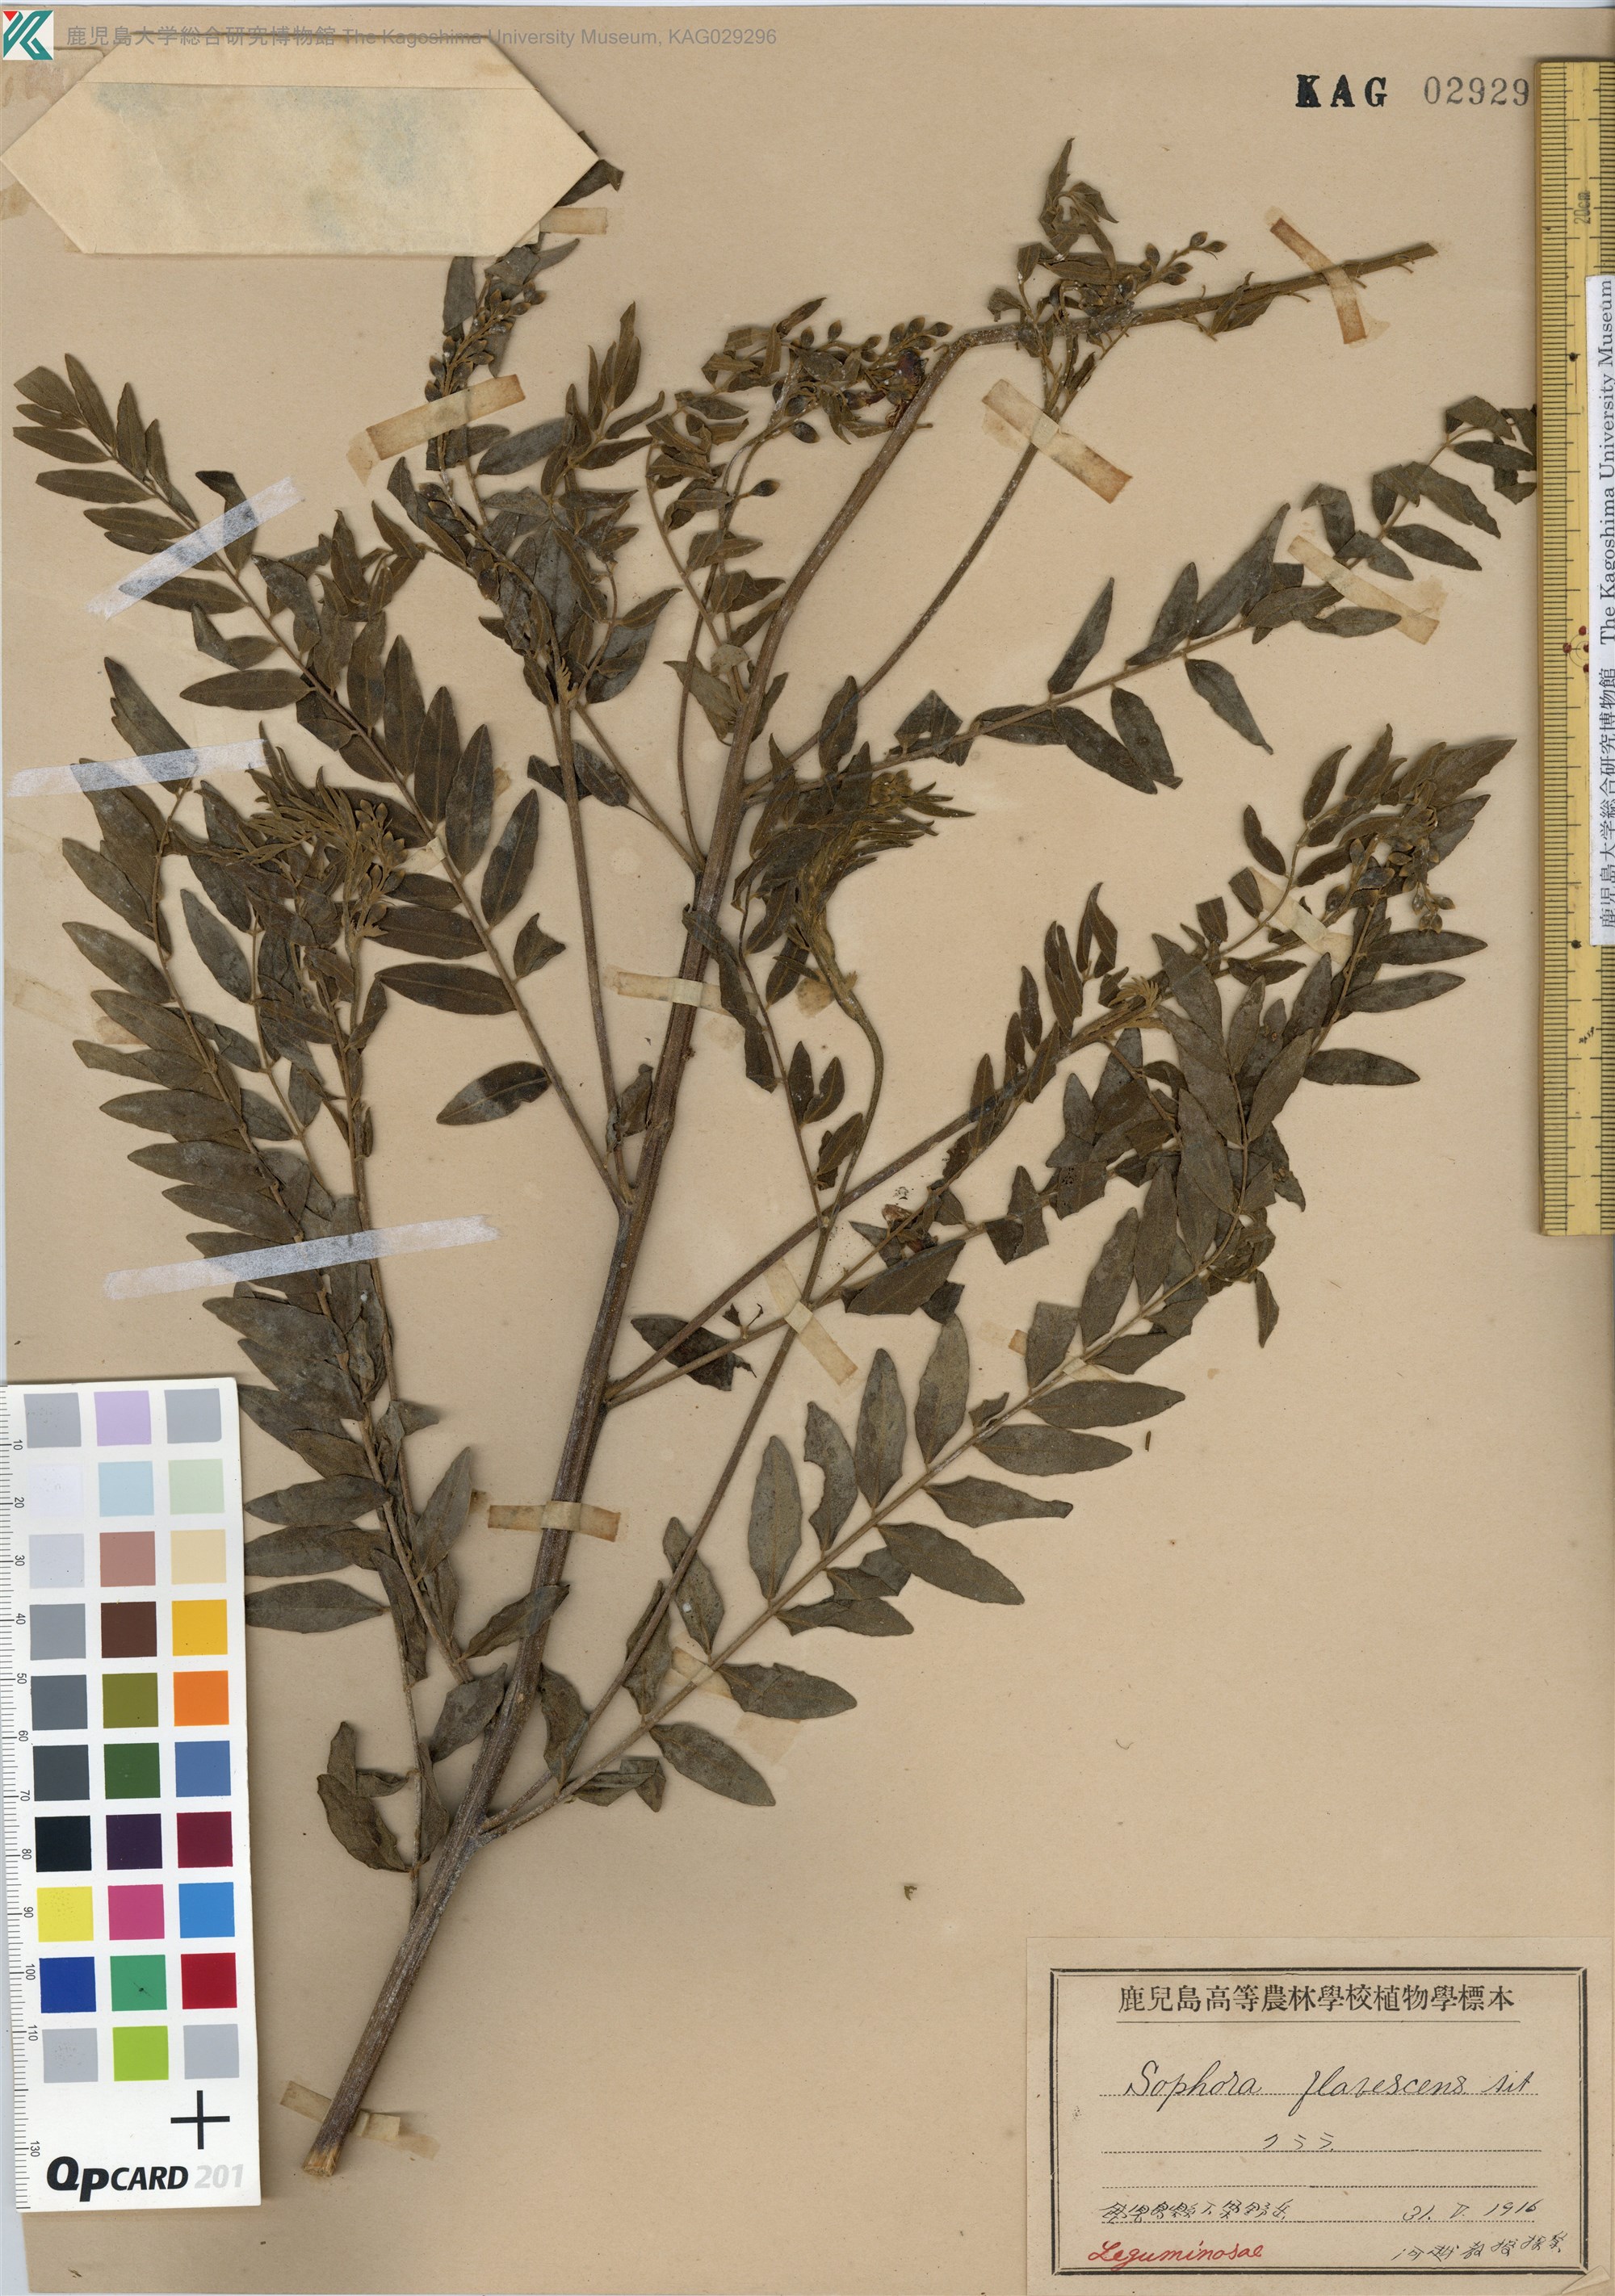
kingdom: Plantae
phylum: Tracheophyta
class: Magnoliopsida
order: Fabales
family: Fabaceae
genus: Sophora
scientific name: Sophora flavescens
